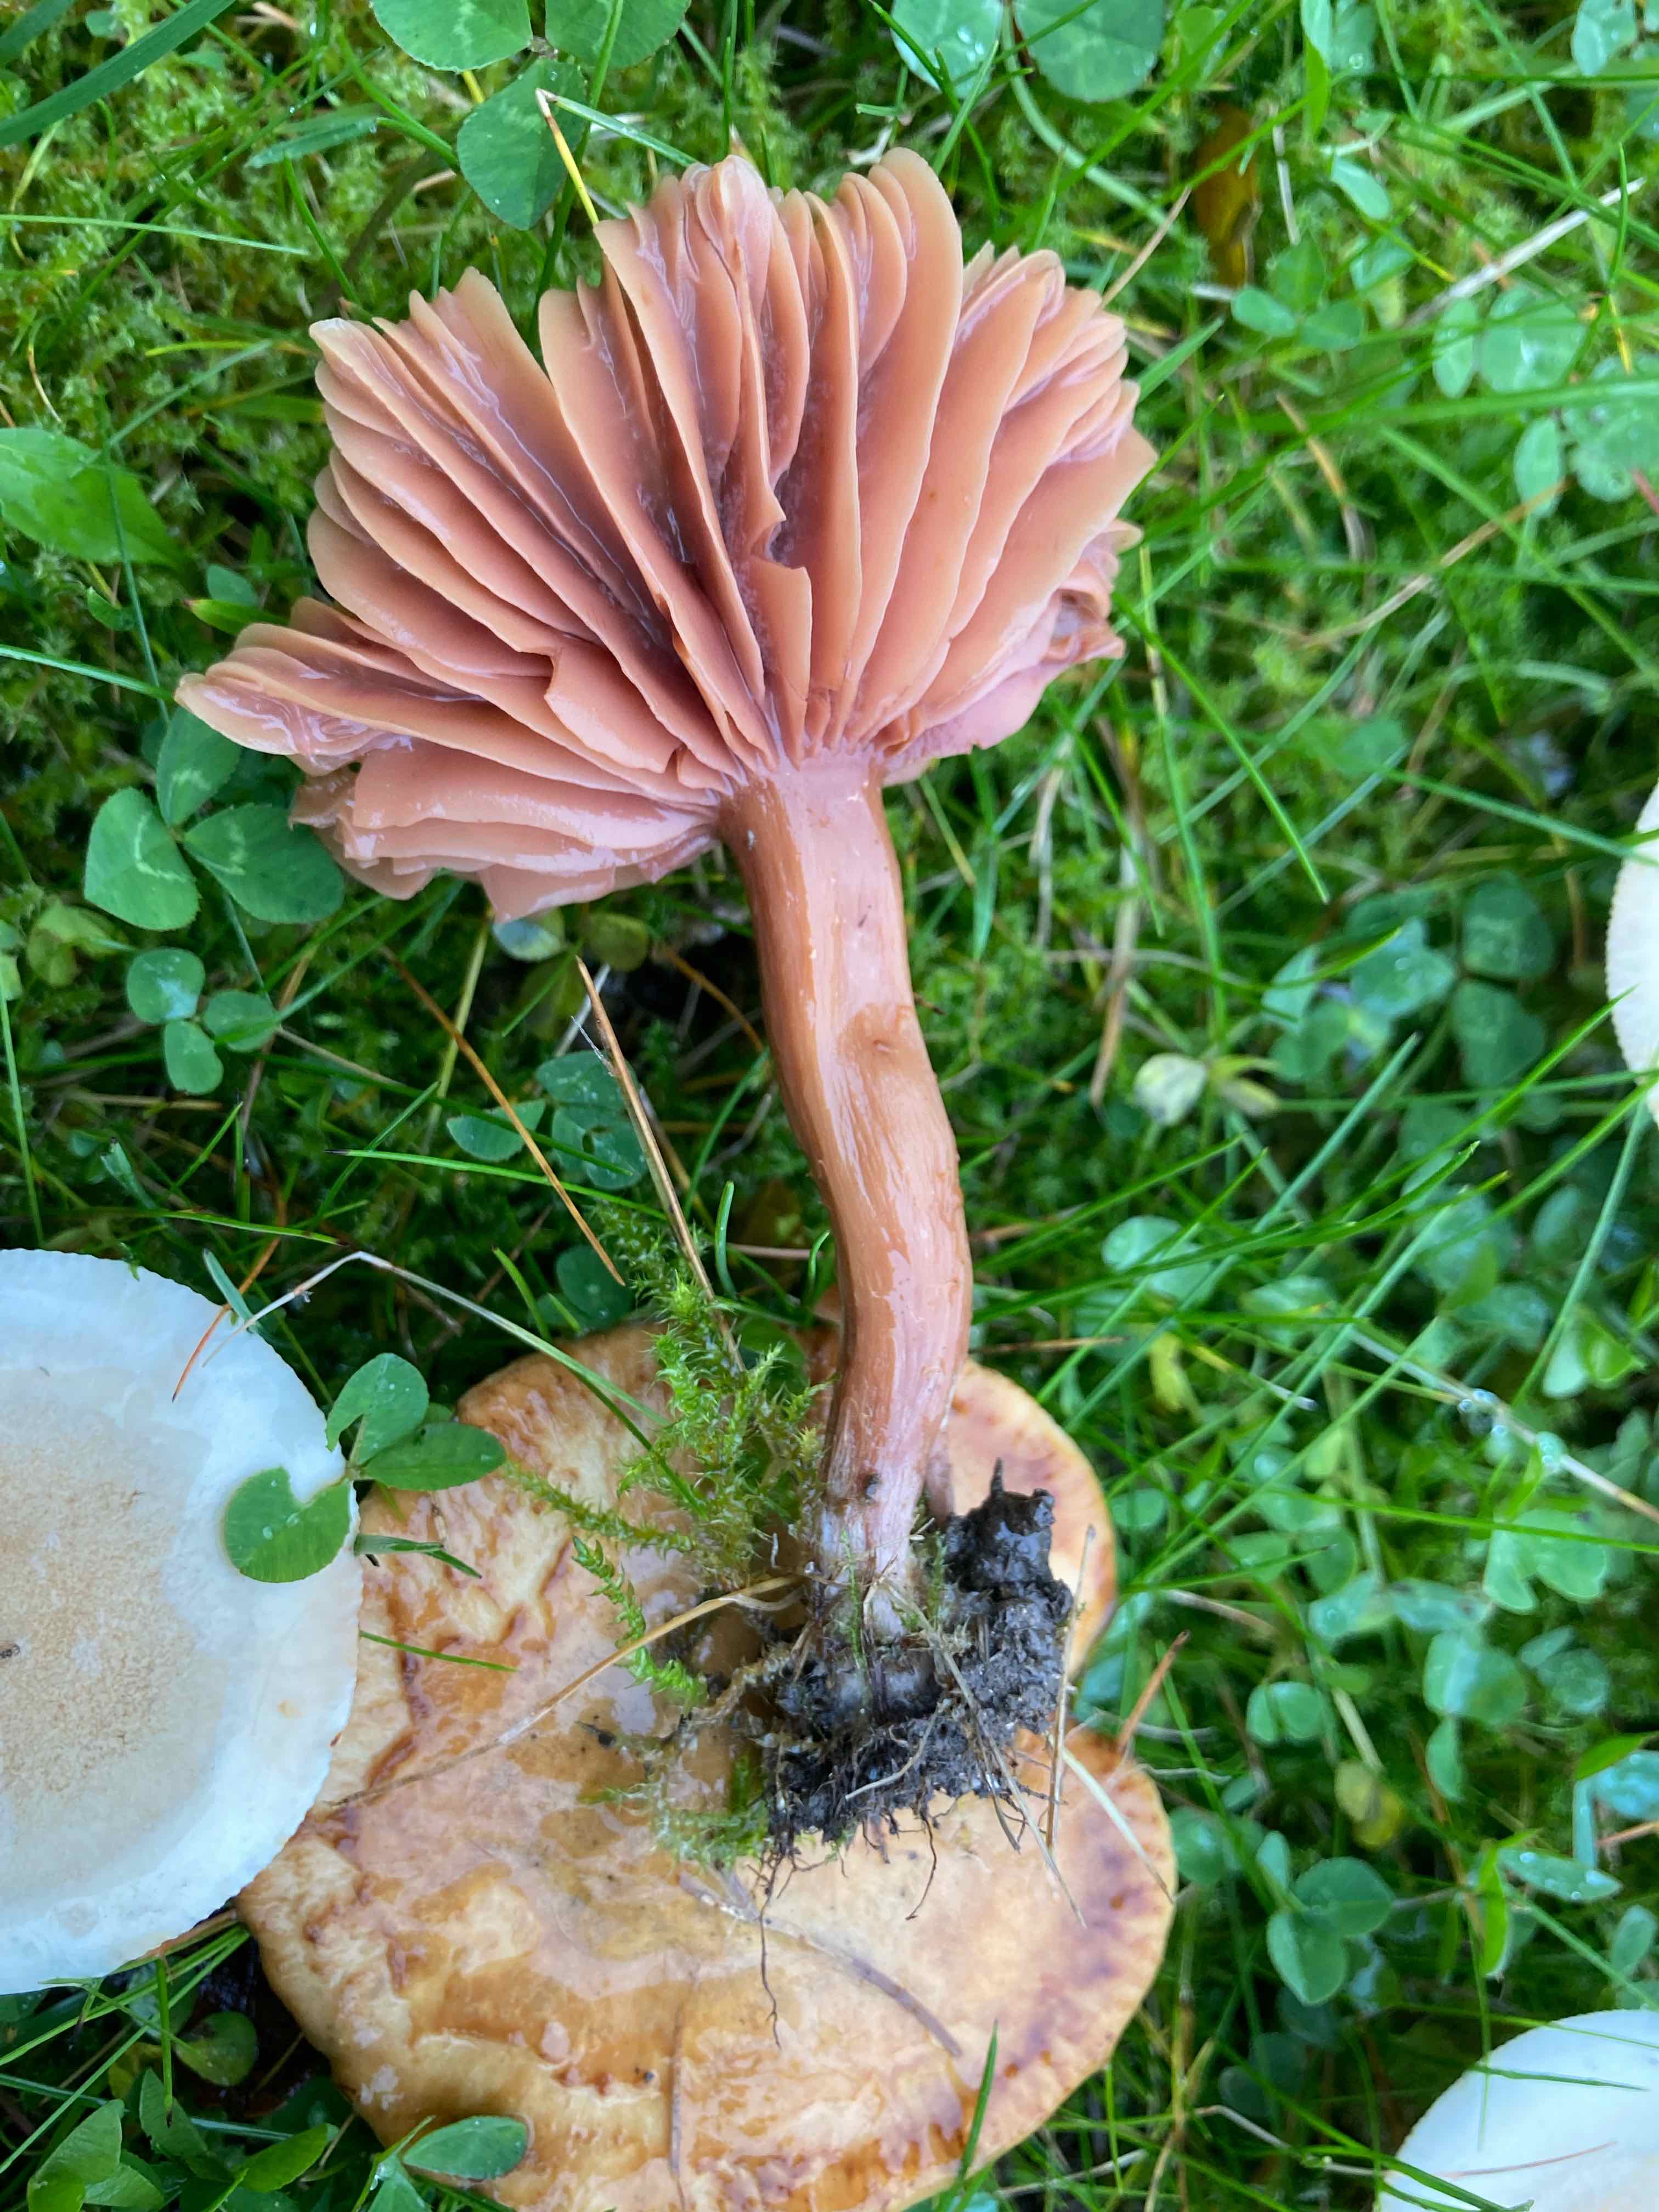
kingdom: Fungi
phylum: Basidiomycota
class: Agaricomycetes
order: Agaricales
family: Hydnangiaceae
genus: Laccaria
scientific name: Laccaria laccata
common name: rød ametysthat
